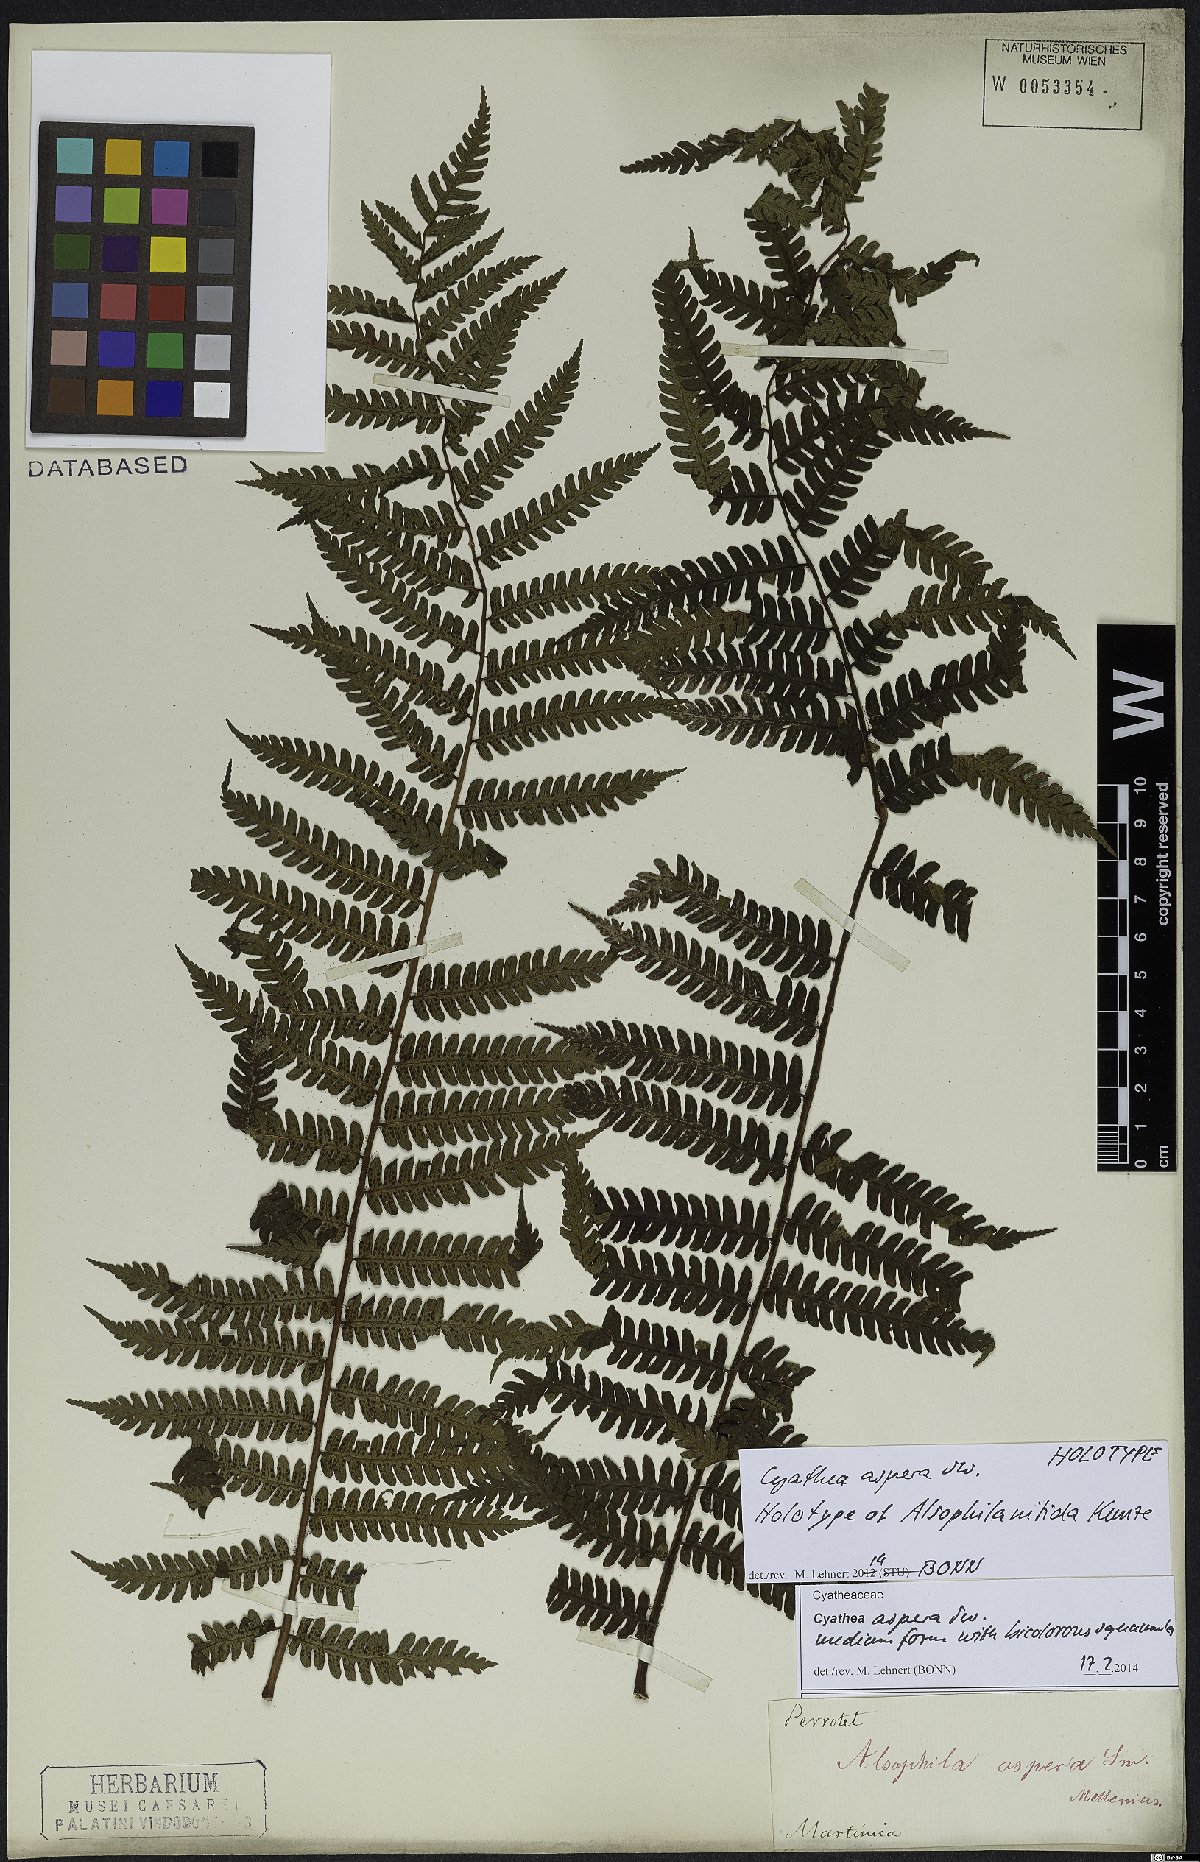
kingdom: Plantae
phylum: Tracheophyta
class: Polypodiopsida
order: Cyatheales
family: Cyatheaceae
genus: Cyathea
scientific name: Cyathea aspera
